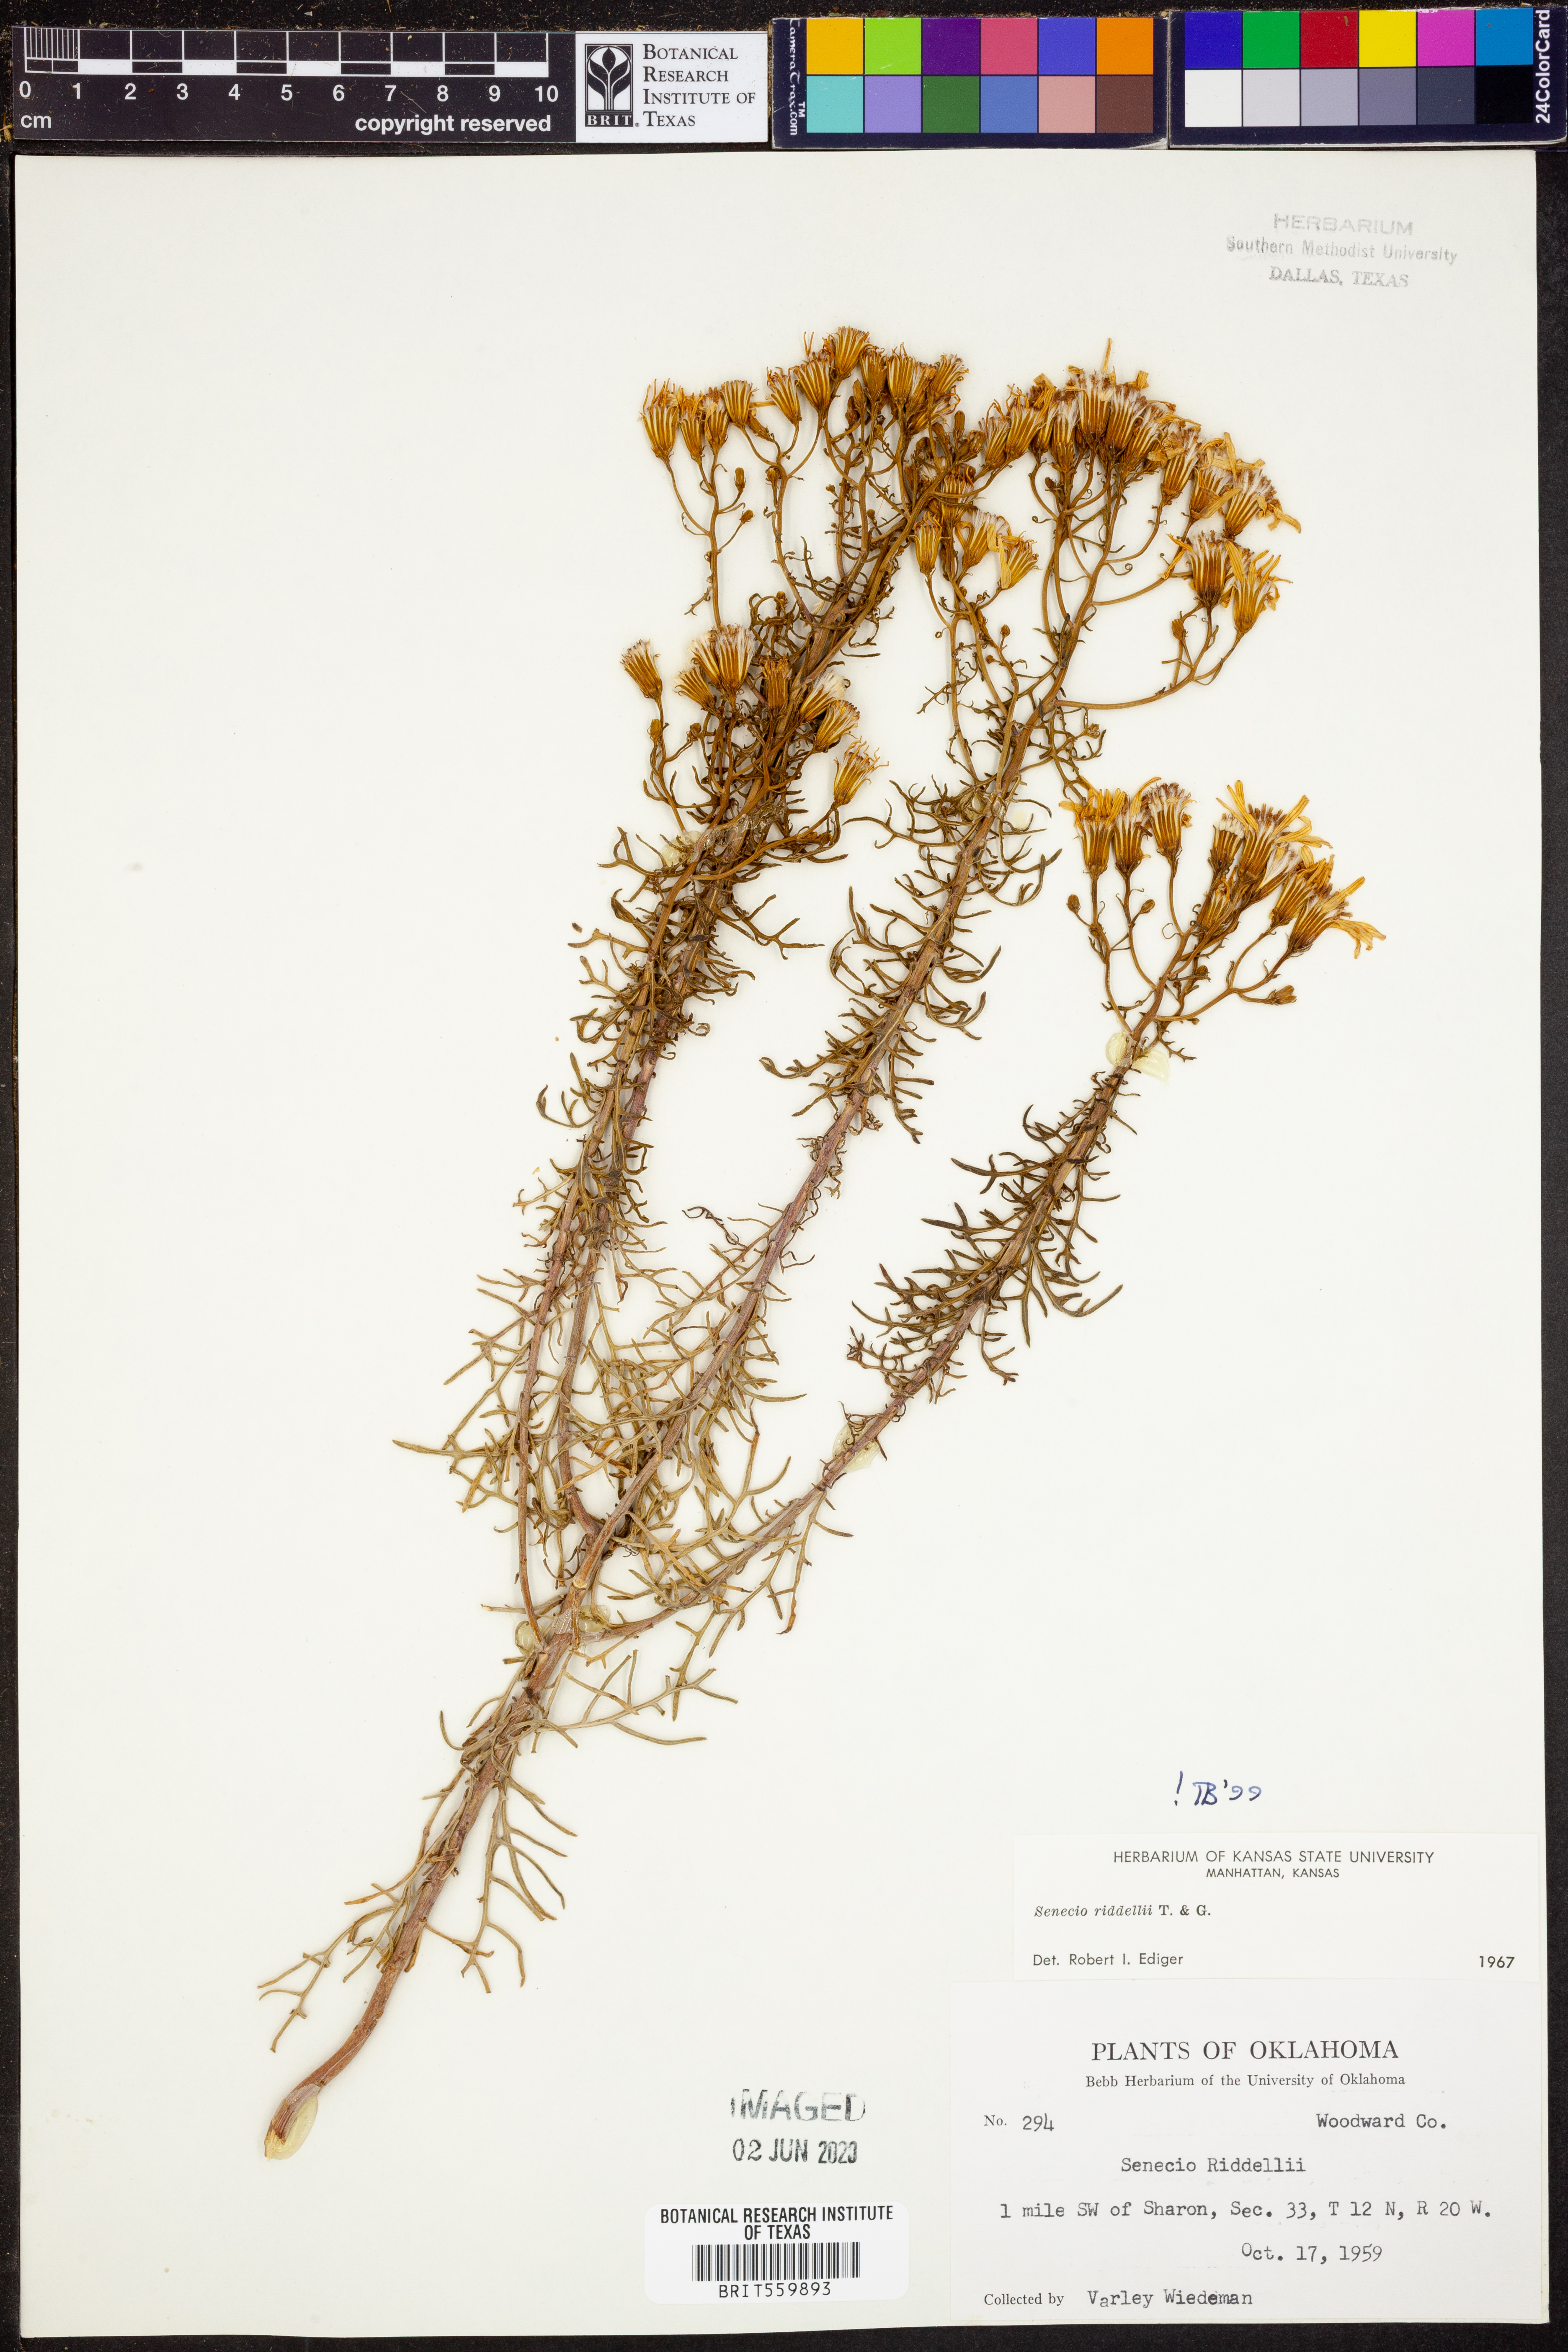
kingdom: Plantae
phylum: Tracheophyta
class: Magnoliopsida
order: Asterales
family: Asteraceae
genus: Senecio
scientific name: Senecio riddellii
